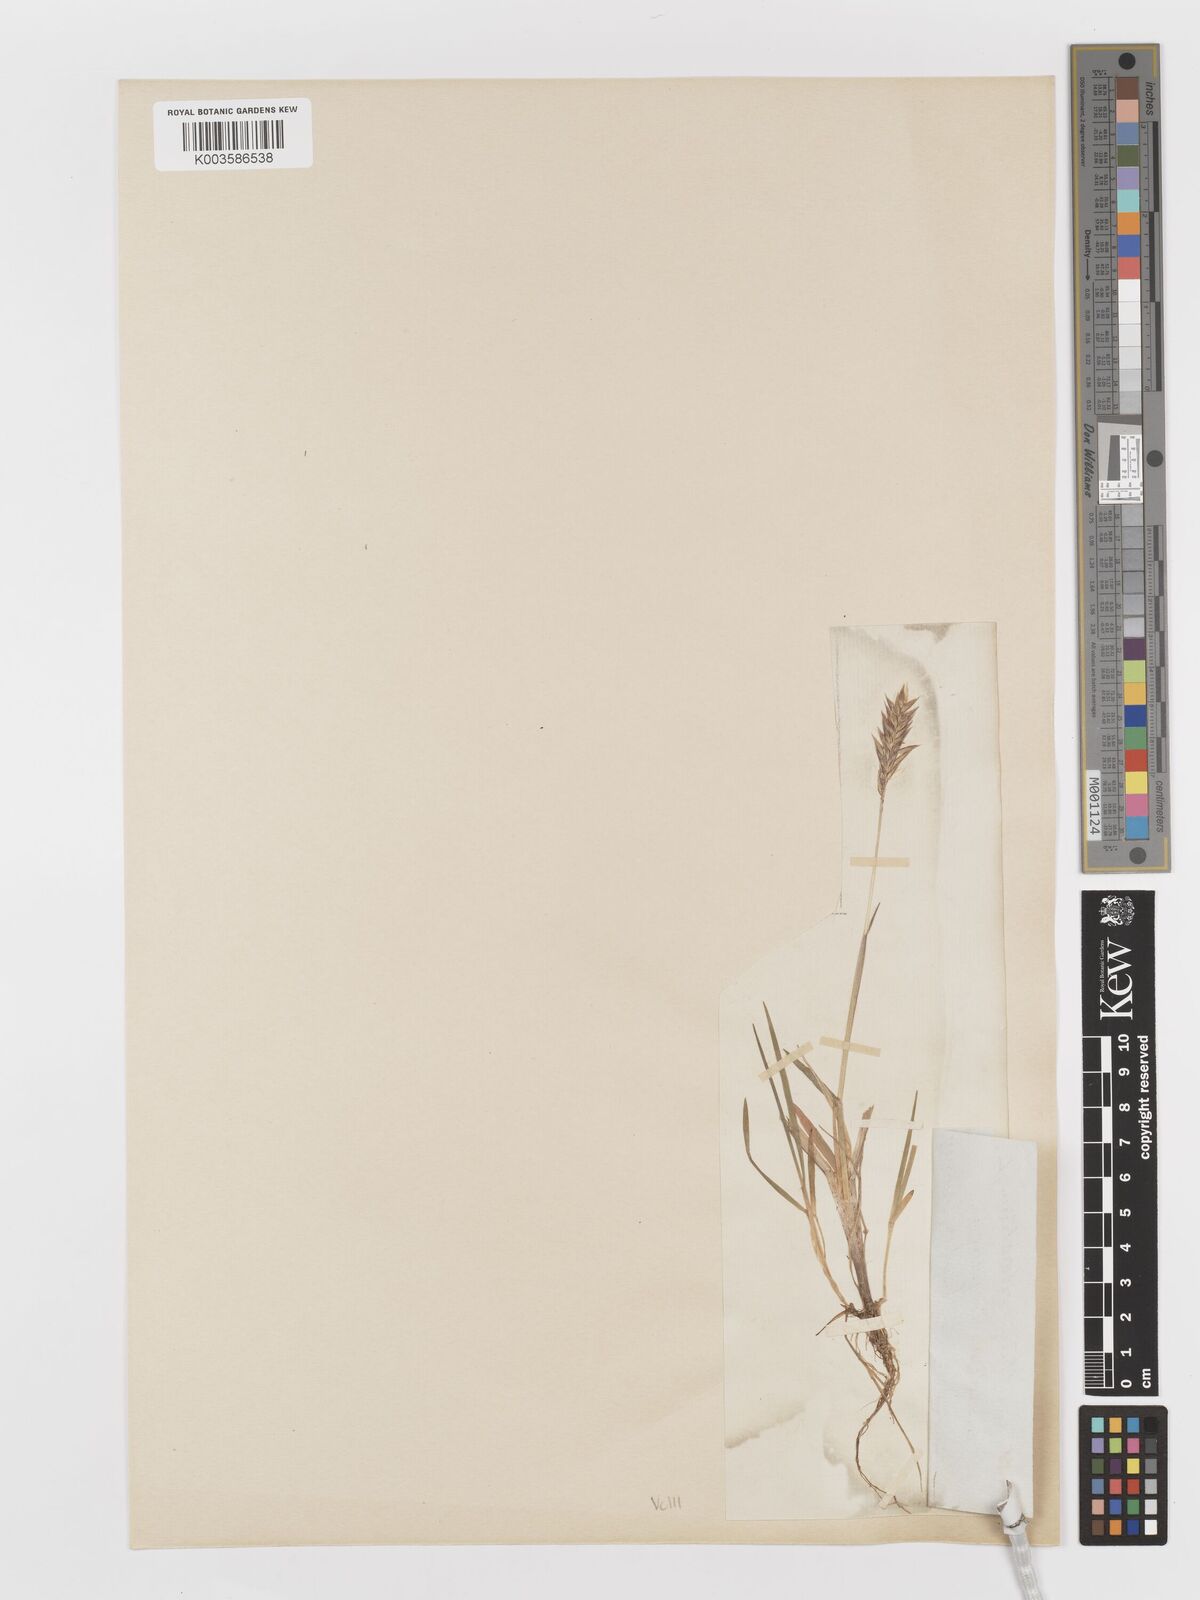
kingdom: Plantae
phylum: Tracheophyta
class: Liliopsida
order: Poales
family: Poaceae
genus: Anthoxanthum
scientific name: Anthoxanthum odoratum
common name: Sweet vernalgrass
